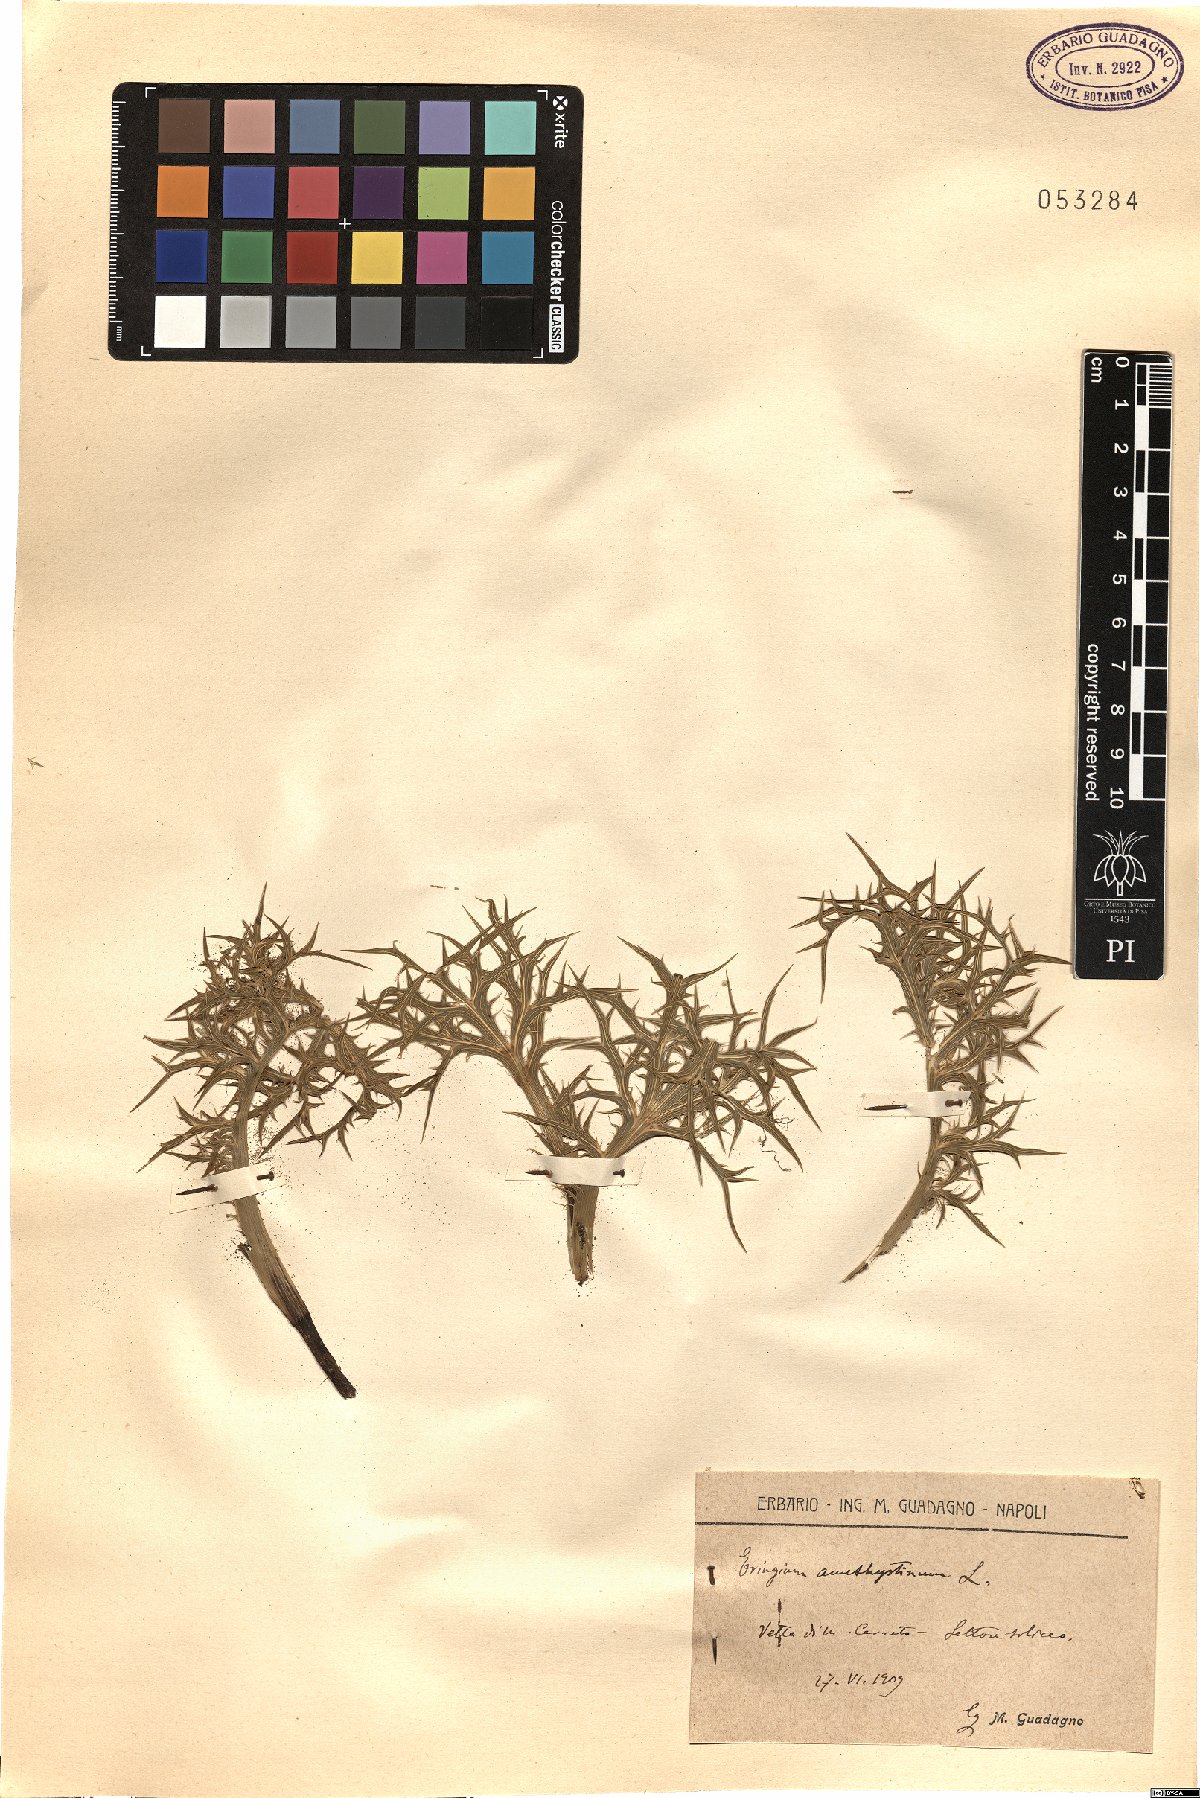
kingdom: Plantae
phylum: Tracheophyta
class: Magnoliopsida
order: Apiales
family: Apiaceae
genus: Eryngium
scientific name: Eryngium amethystinum
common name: Amethyst eryngo
